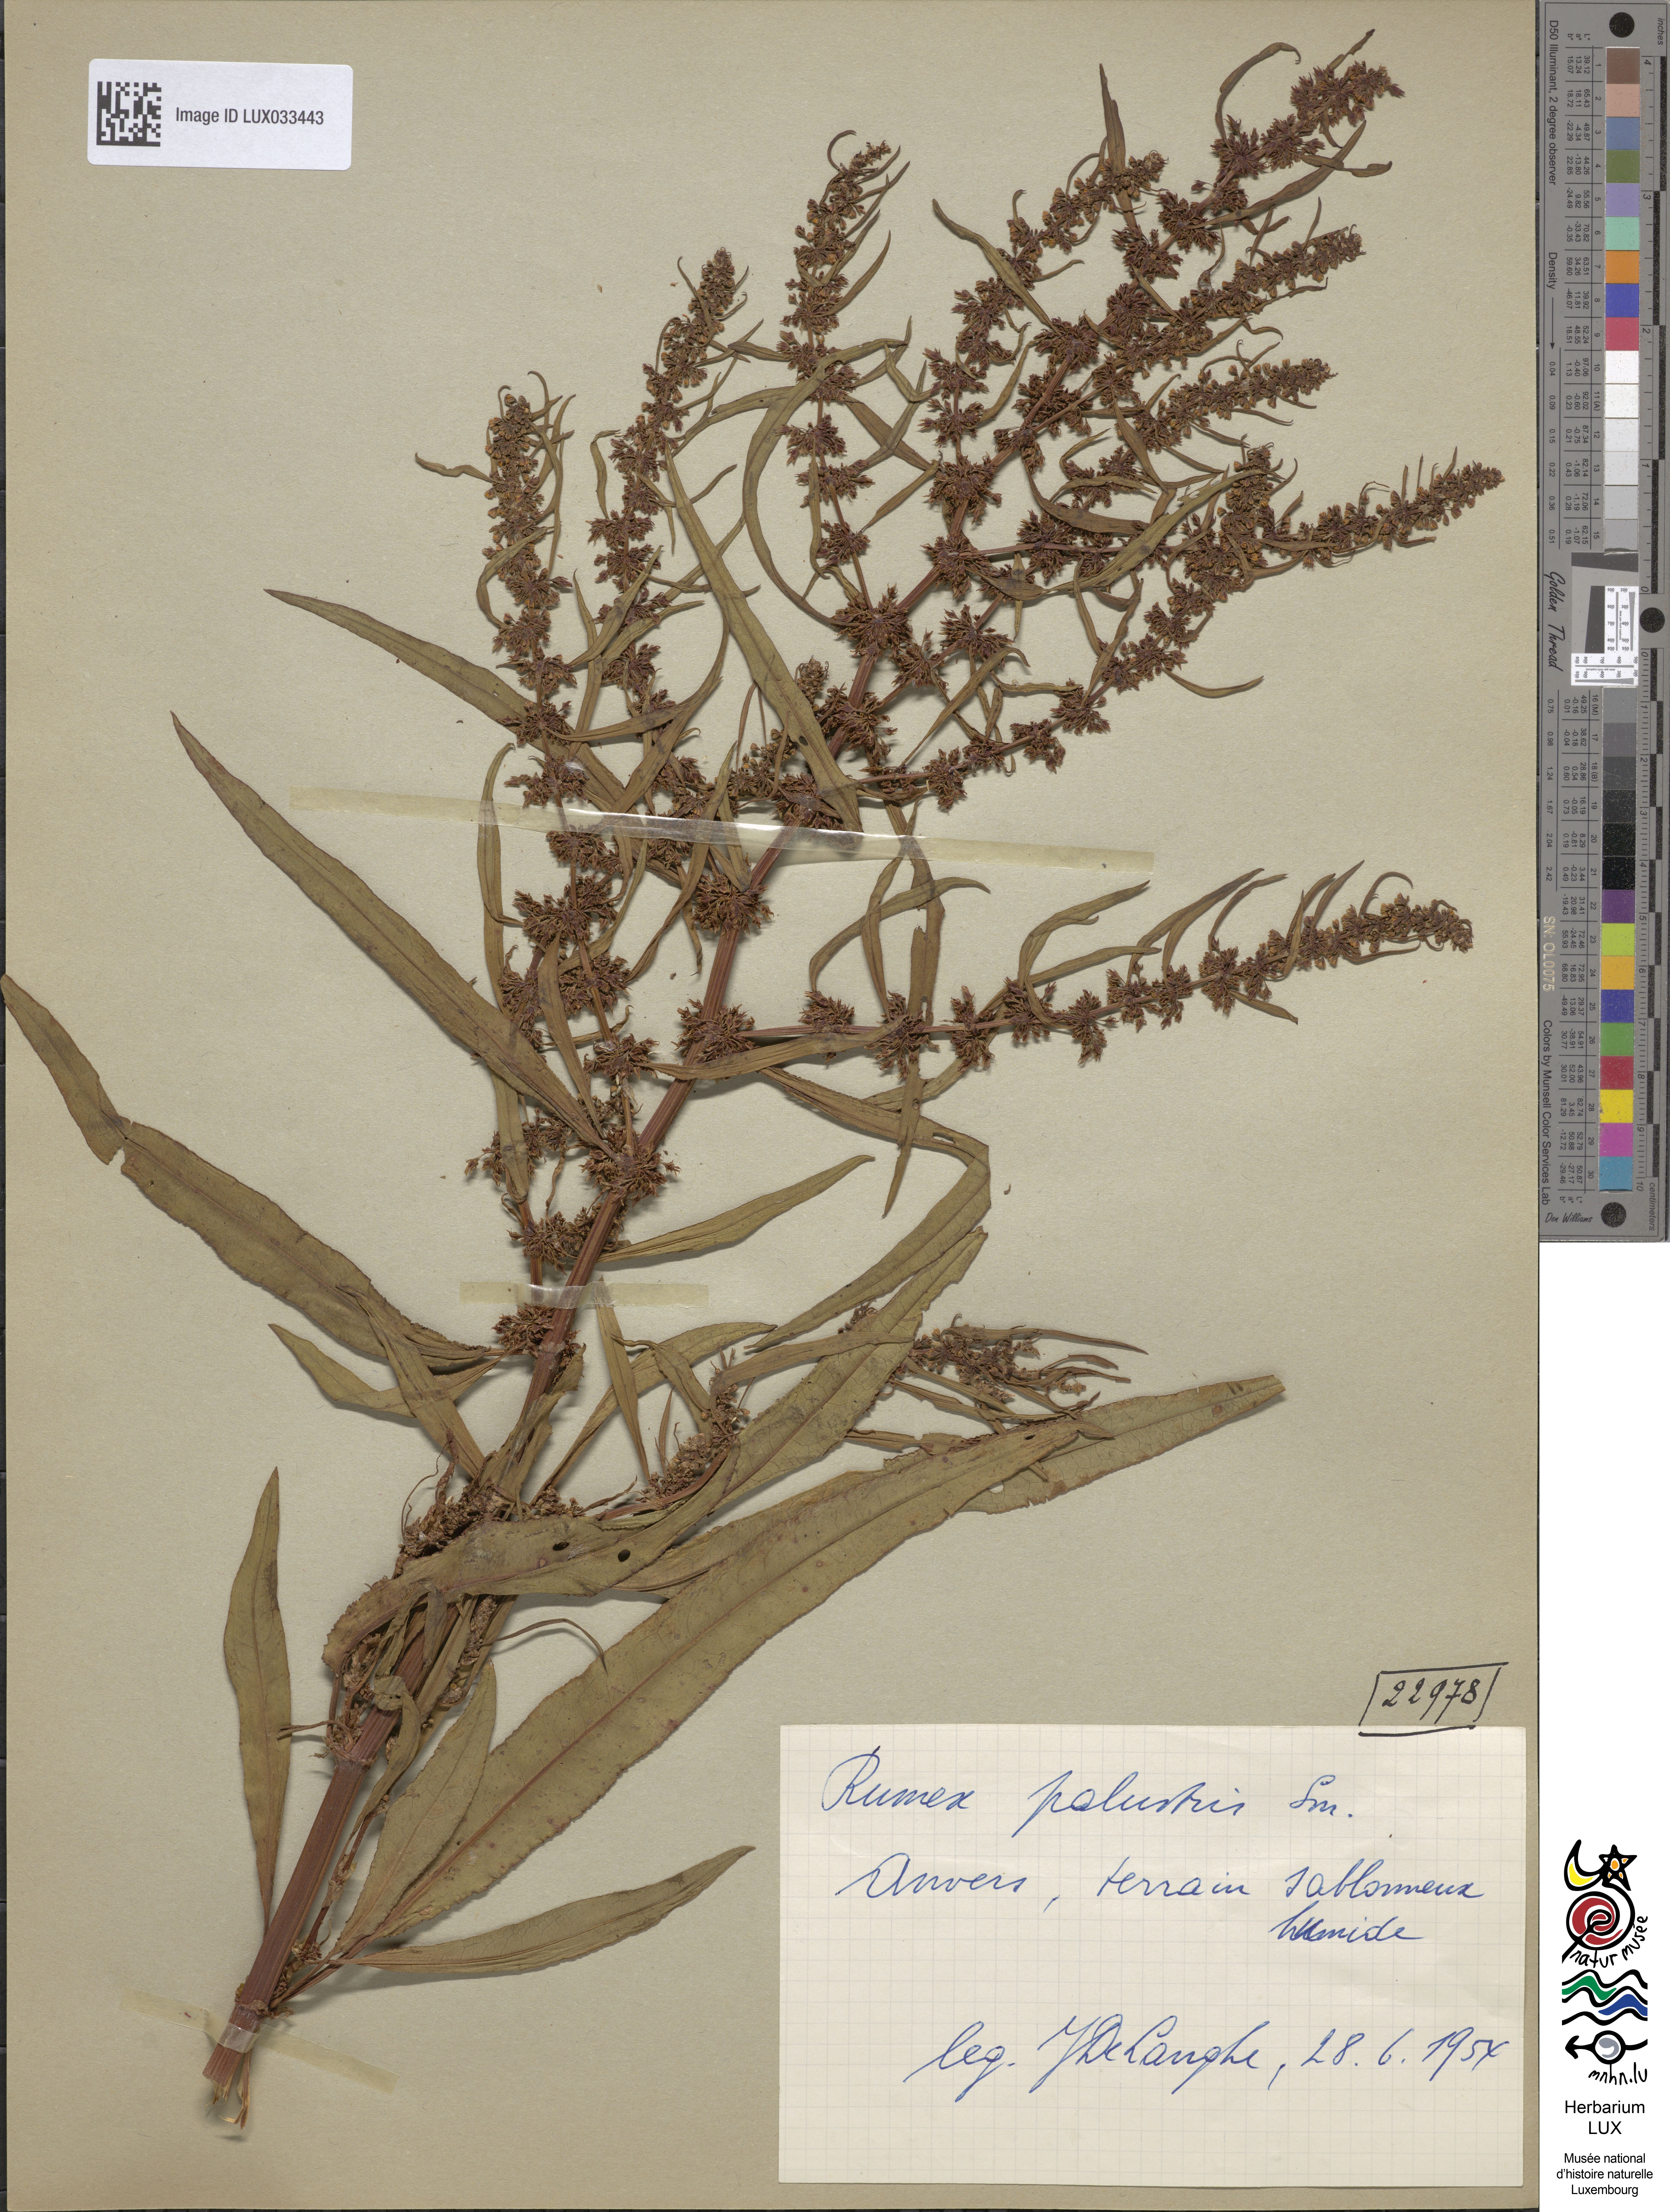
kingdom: Plantae
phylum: Tracheophyta
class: Magnoliopsida
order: Caryophyllales
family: Polygonaceae
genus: Rumex
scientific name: Rumex maritimus
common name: Golden dock
